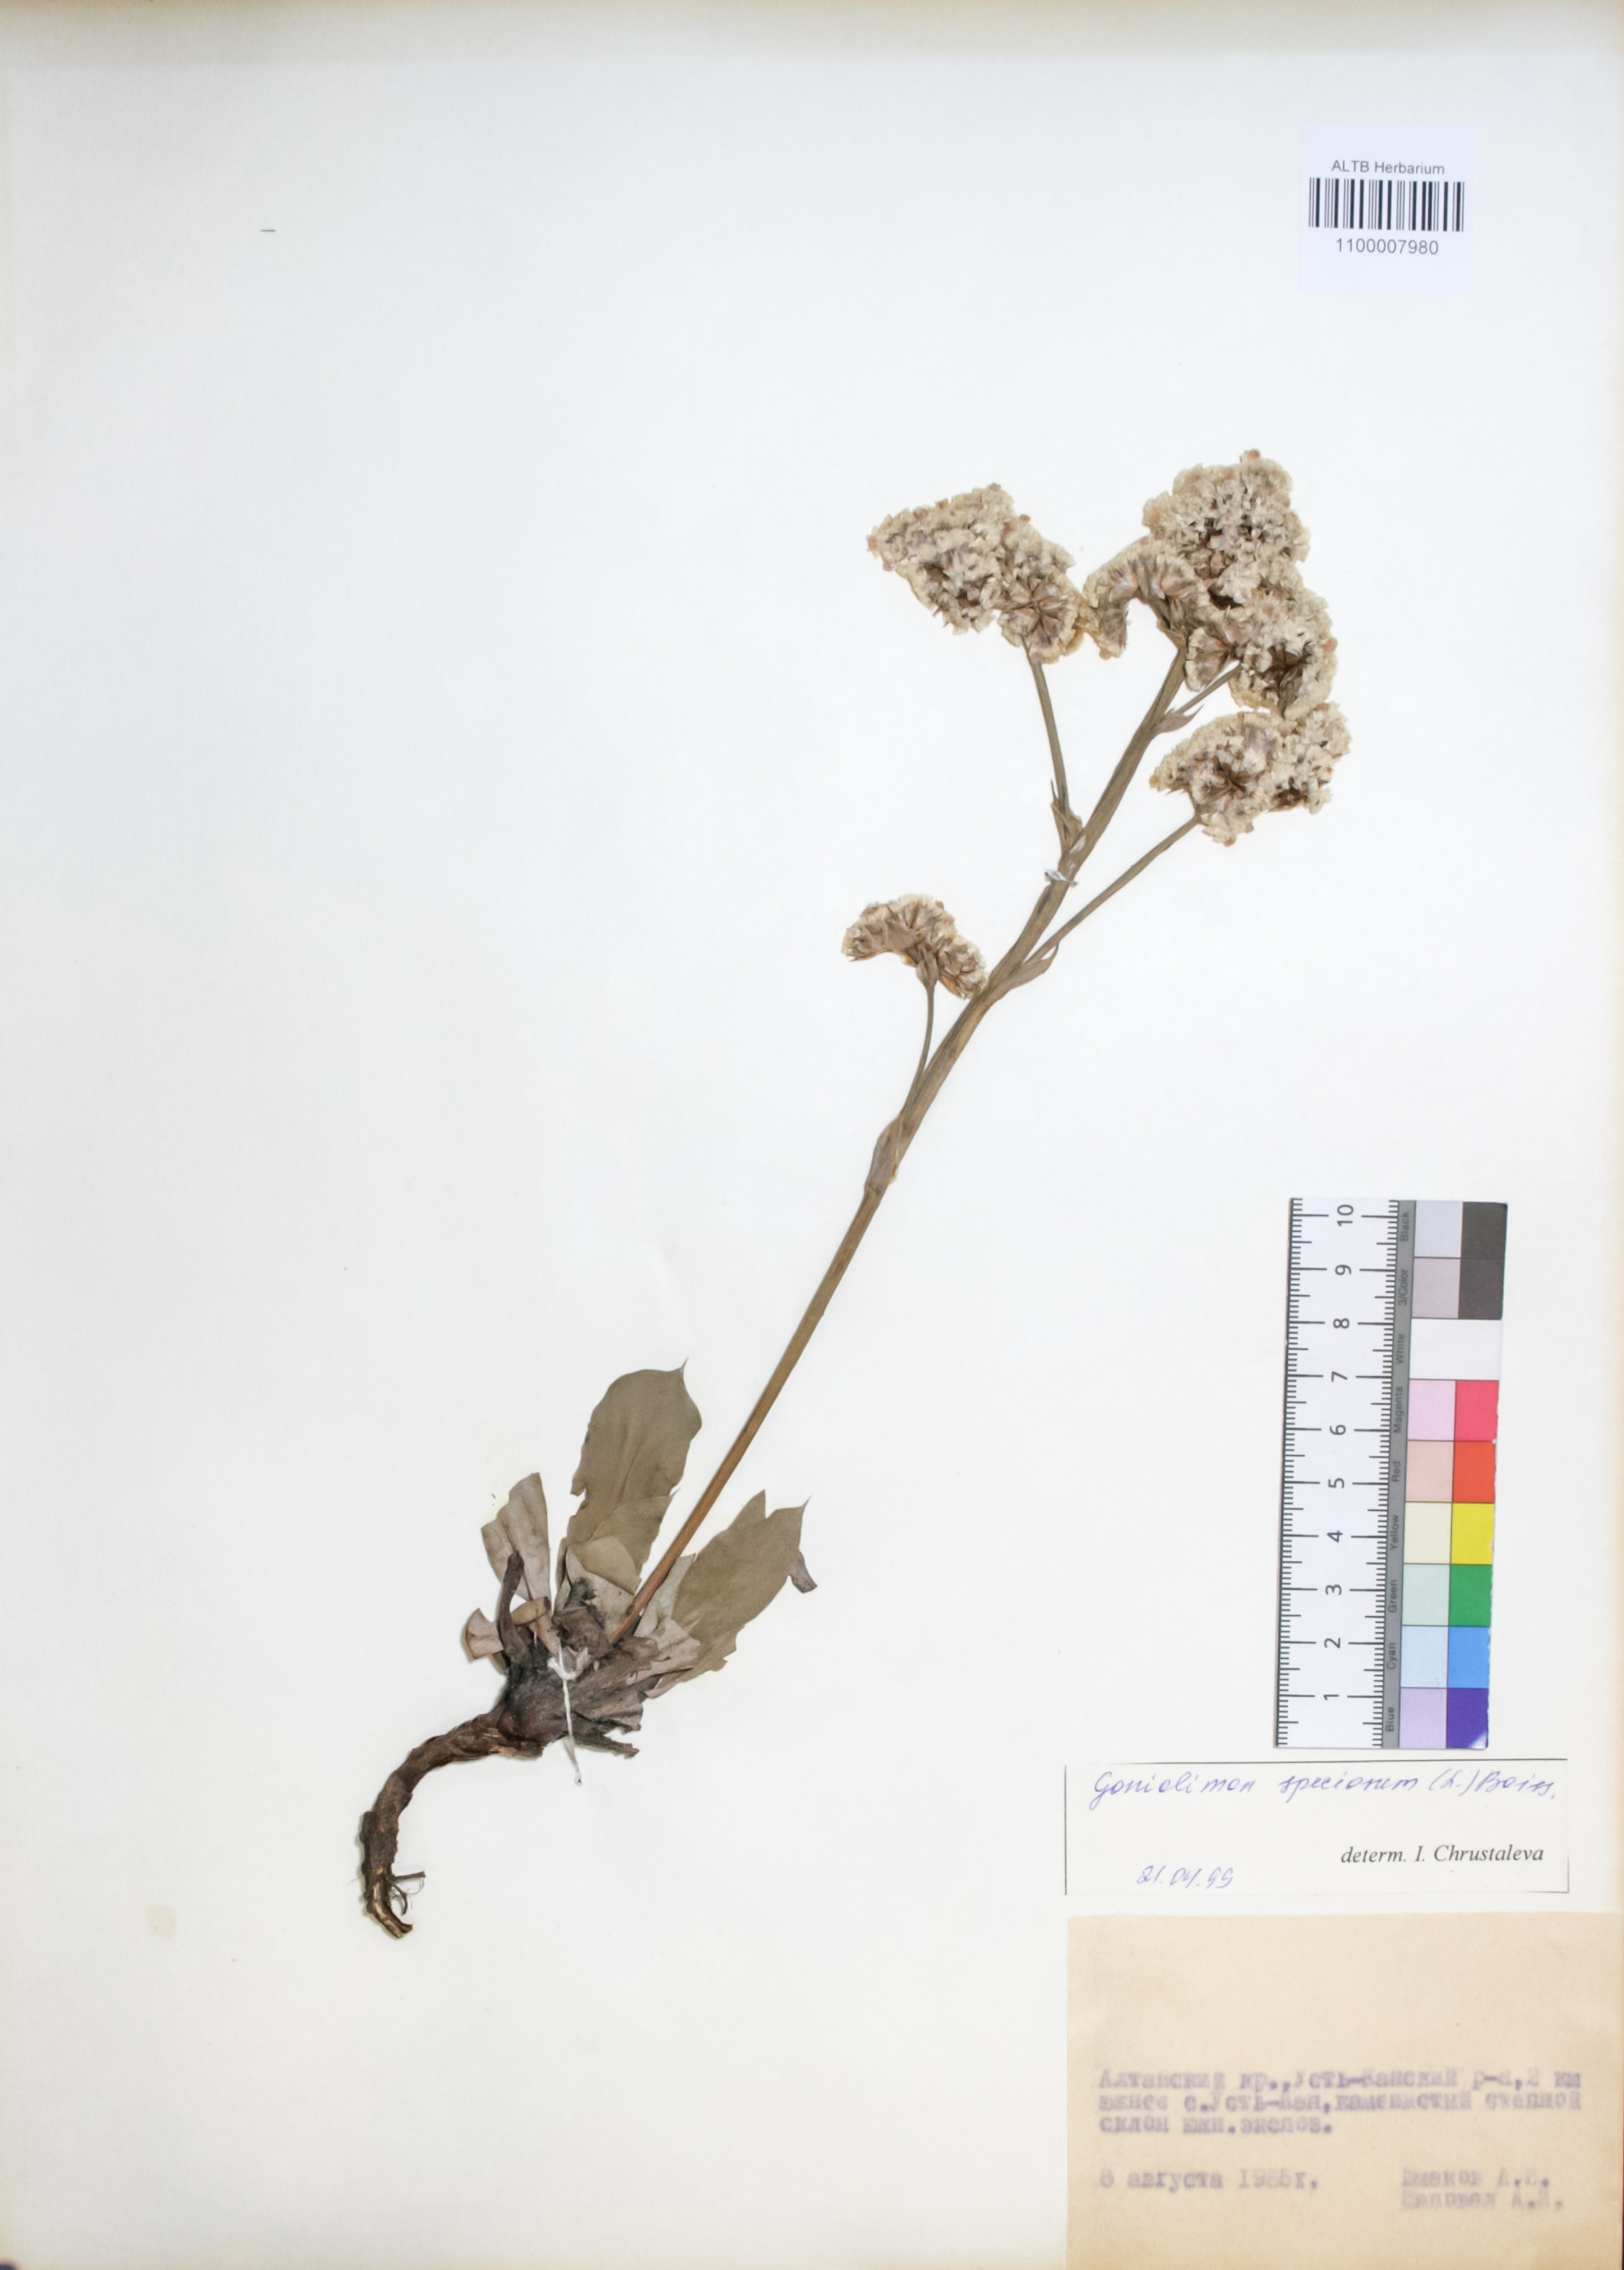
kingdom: Plantae
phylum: Tracheophyta
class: Magnoliopsida
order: Caryophyllales
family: Plumbaginaceae
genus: Goniolimon
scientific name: Goniolimon speciosum
